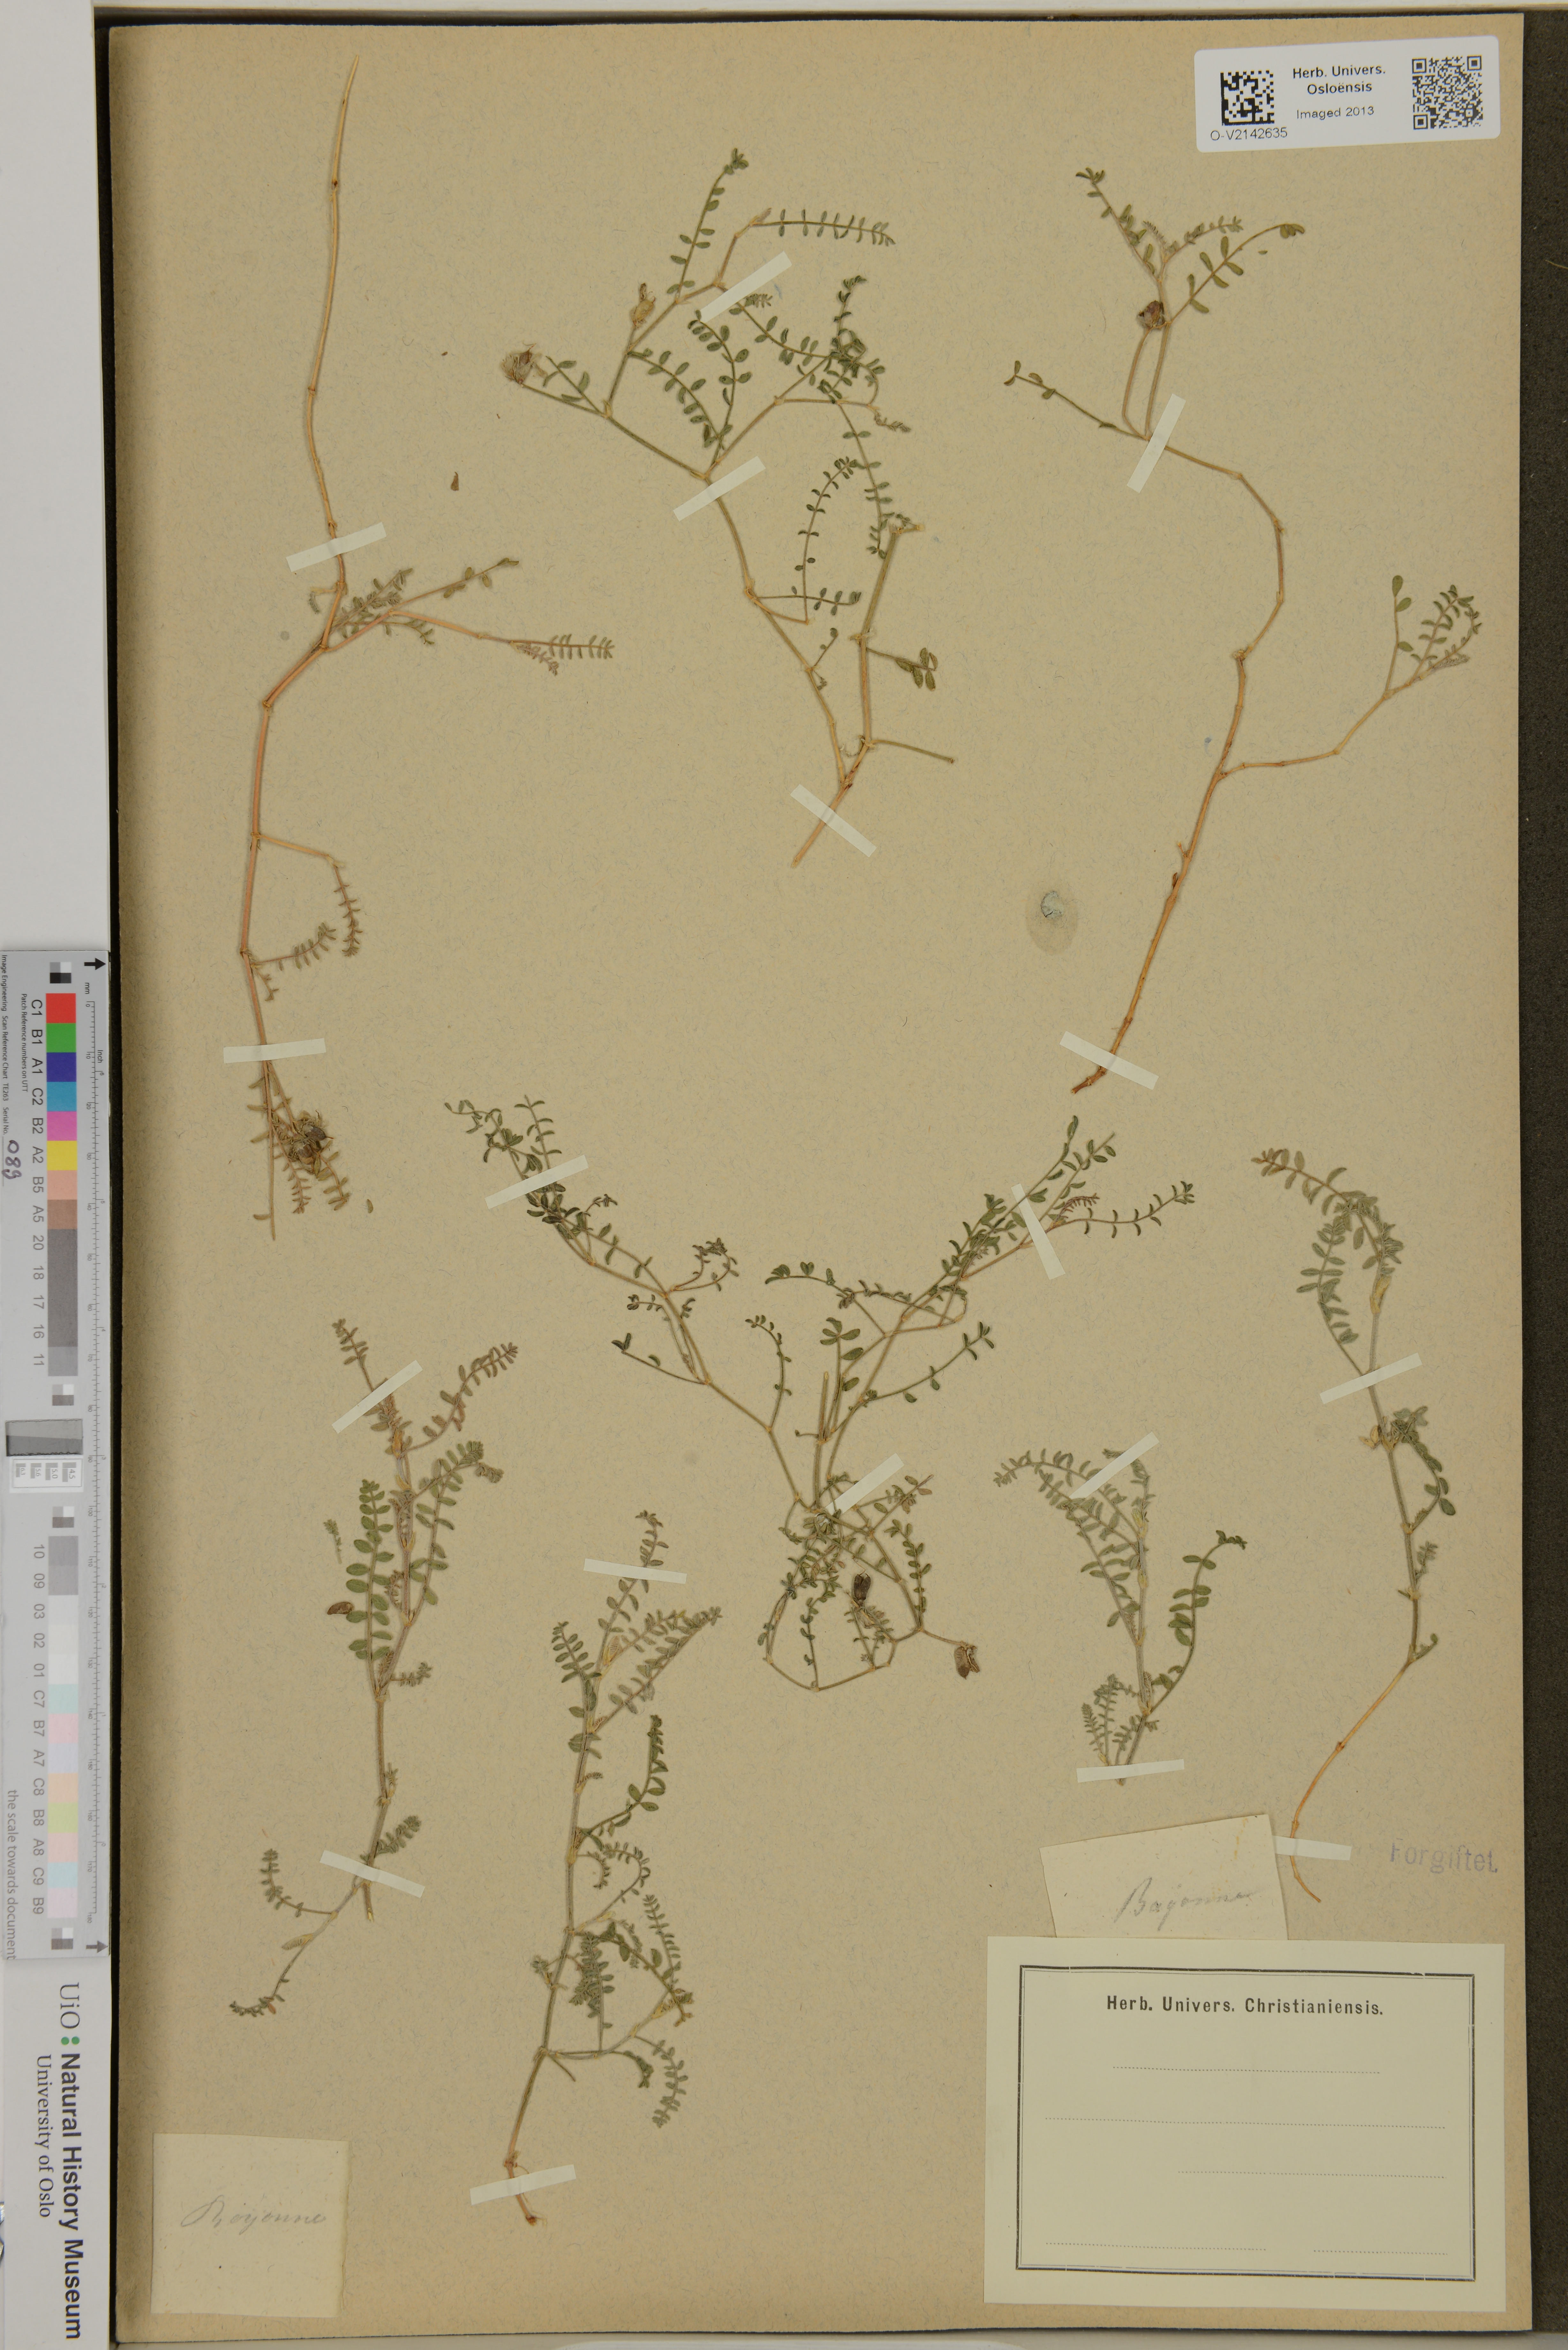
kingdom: Plantae
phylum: Tracheophyta
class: Magnoliopsida
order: Fabales
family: Fabaceae
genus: Astragalus
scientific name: Astragalus
